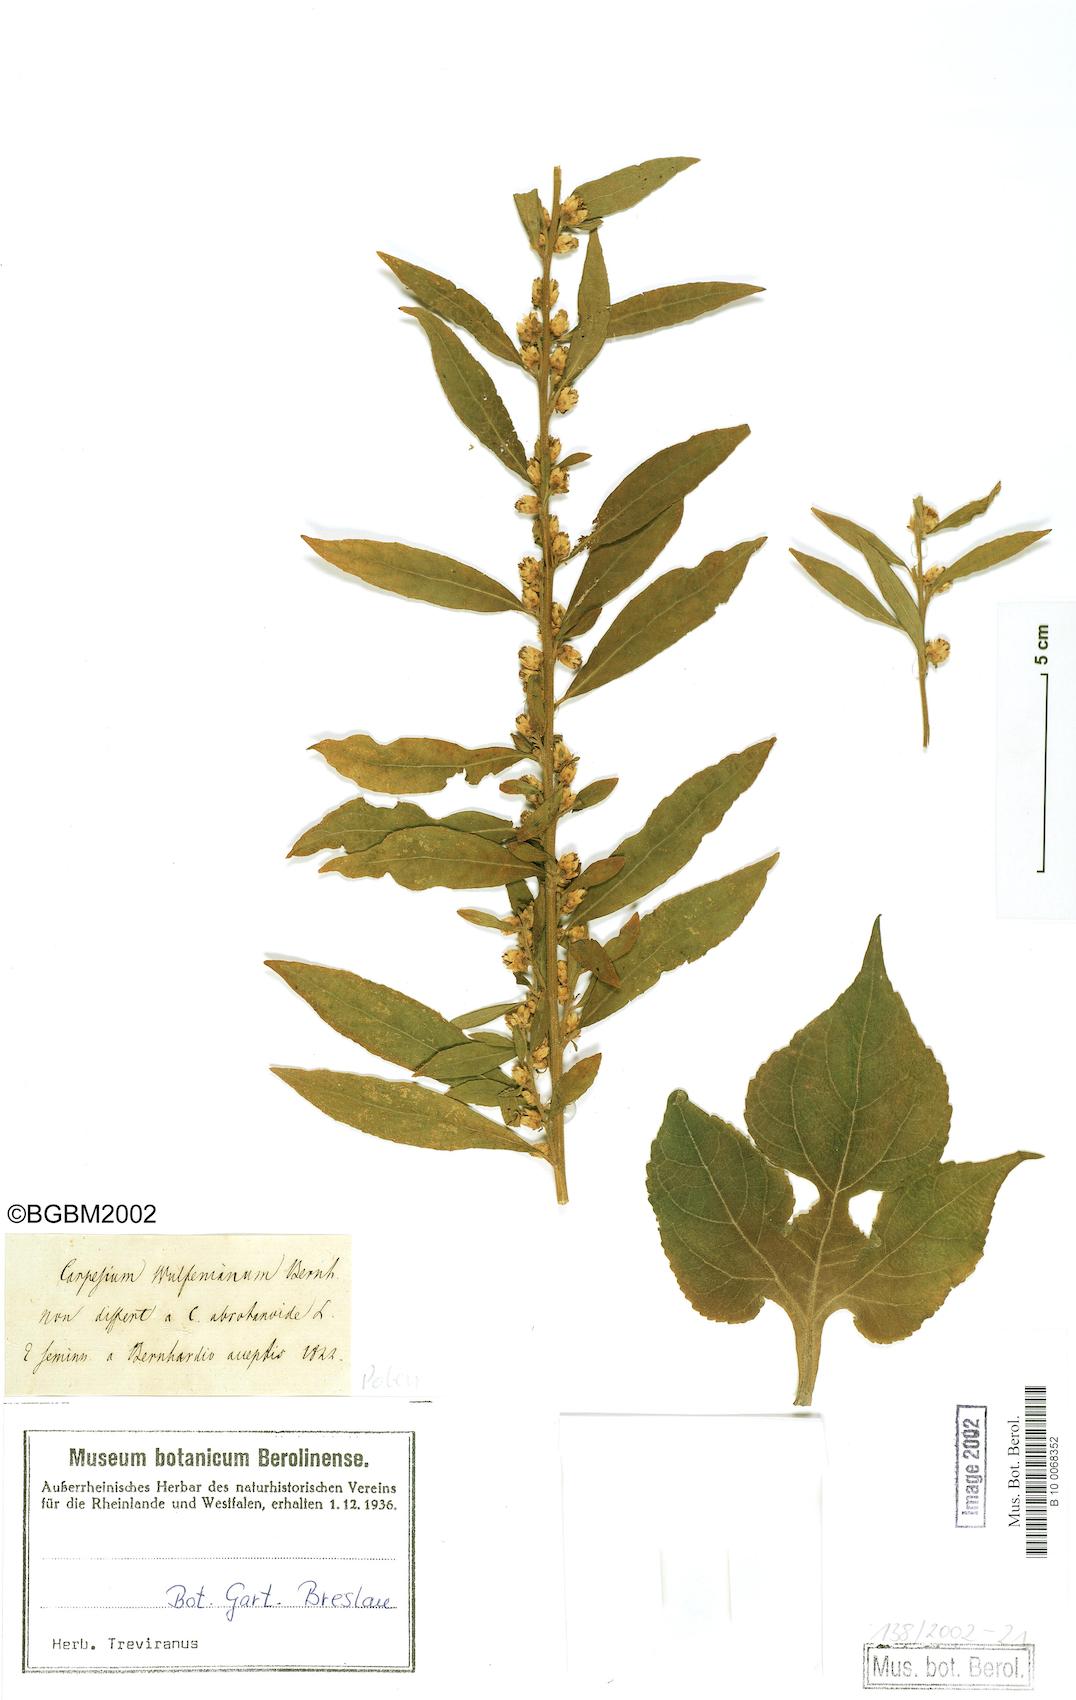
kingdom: Plantae
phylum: Tracheophyta
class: Magnoliopsida
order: Asterales
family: Asteraceae
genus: Carpesium
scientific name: Carpesium abrotanoides
